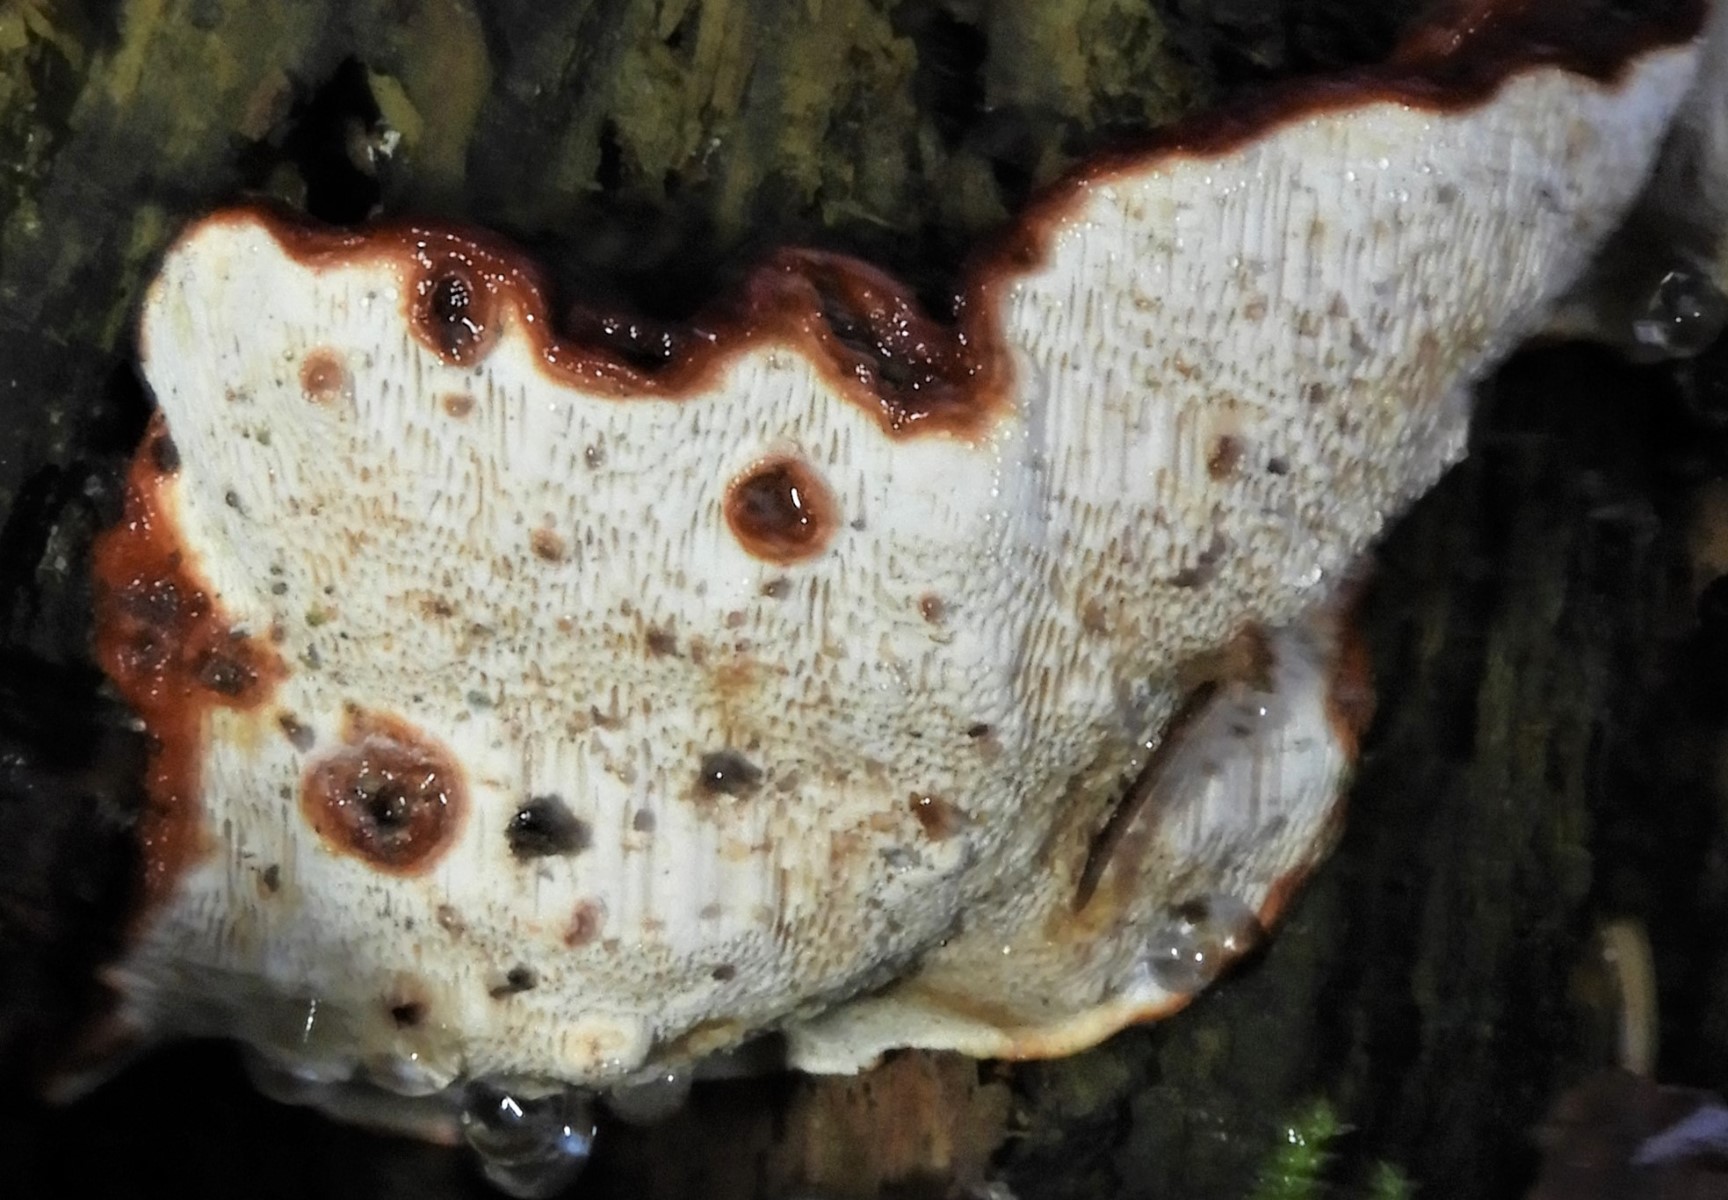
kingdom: Fungi
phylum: Basidiomycota
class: Agaricomycetes
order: Russulales
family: Bondarzewiaceae
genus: Heterobasidion
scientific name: Heterobasidion annosum
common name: almindelig rodfordærver
